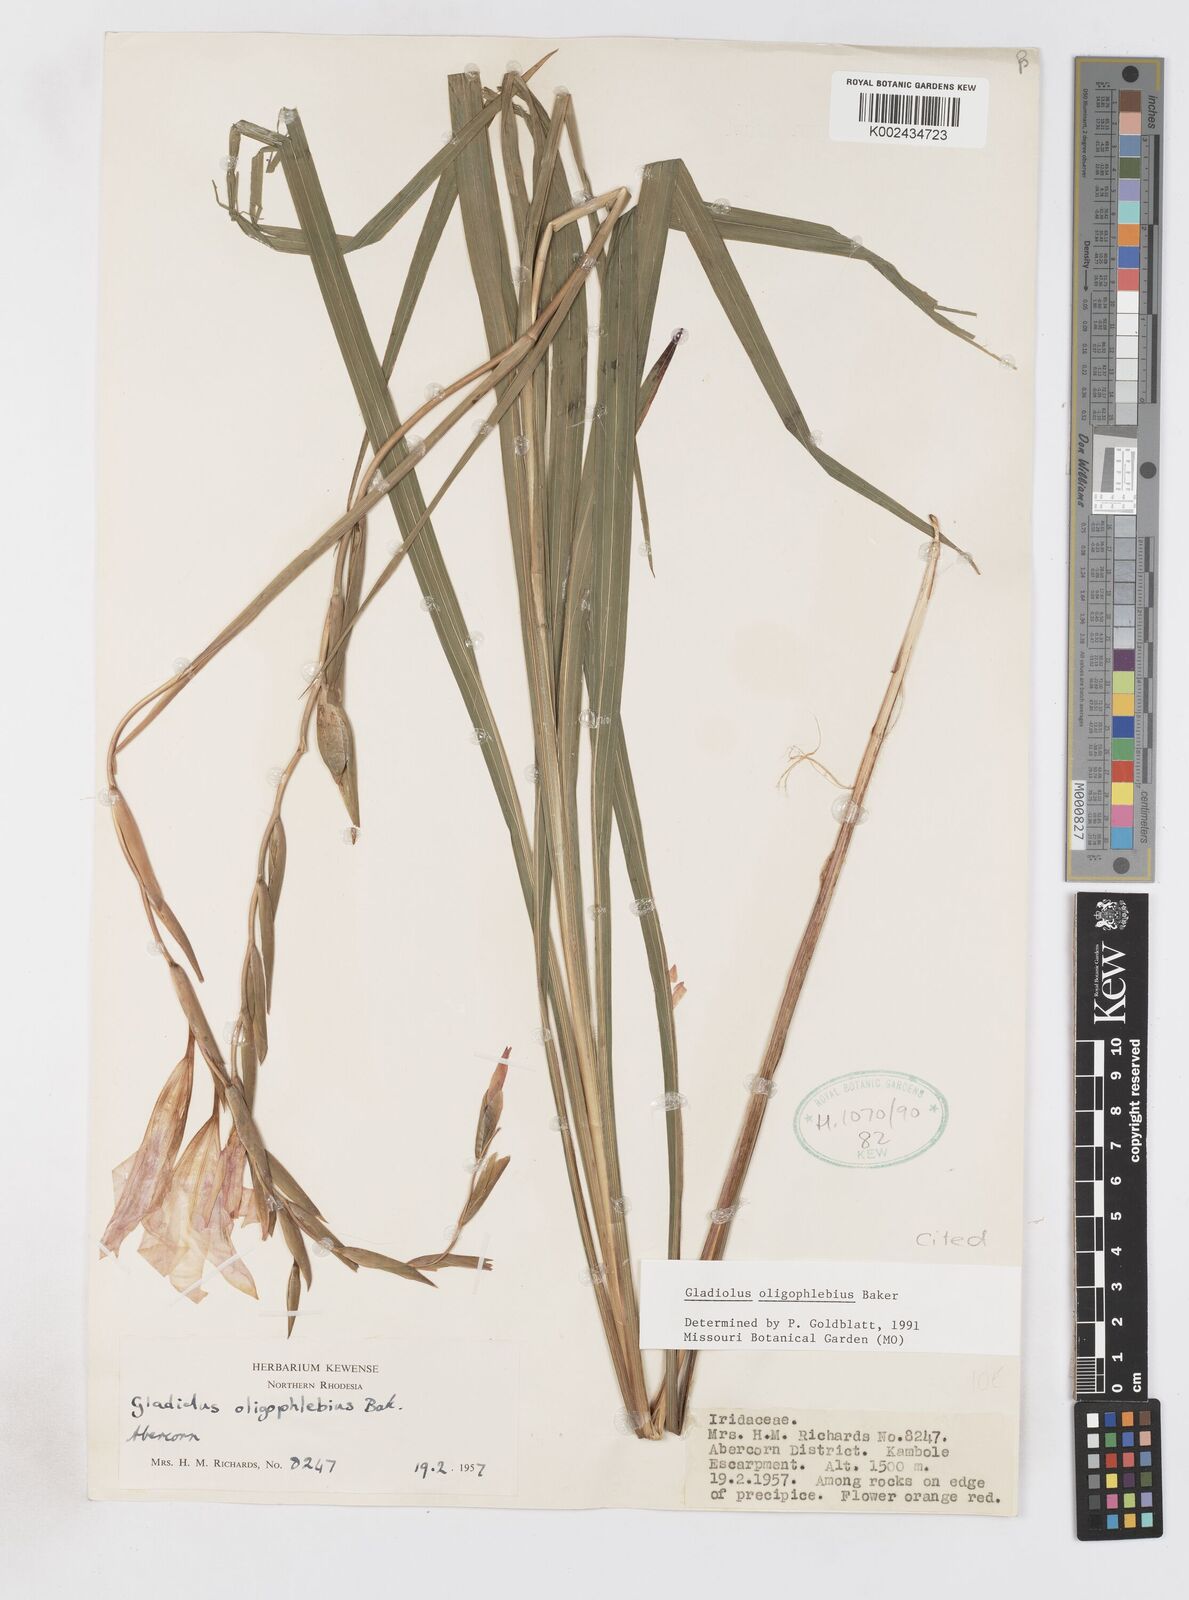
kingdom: Plantae
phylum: Tracheophyta
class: Liliopsida
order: Asparagales
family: Iridaceae
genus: Gladiolus
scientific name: Gladiolus oligophlebius
